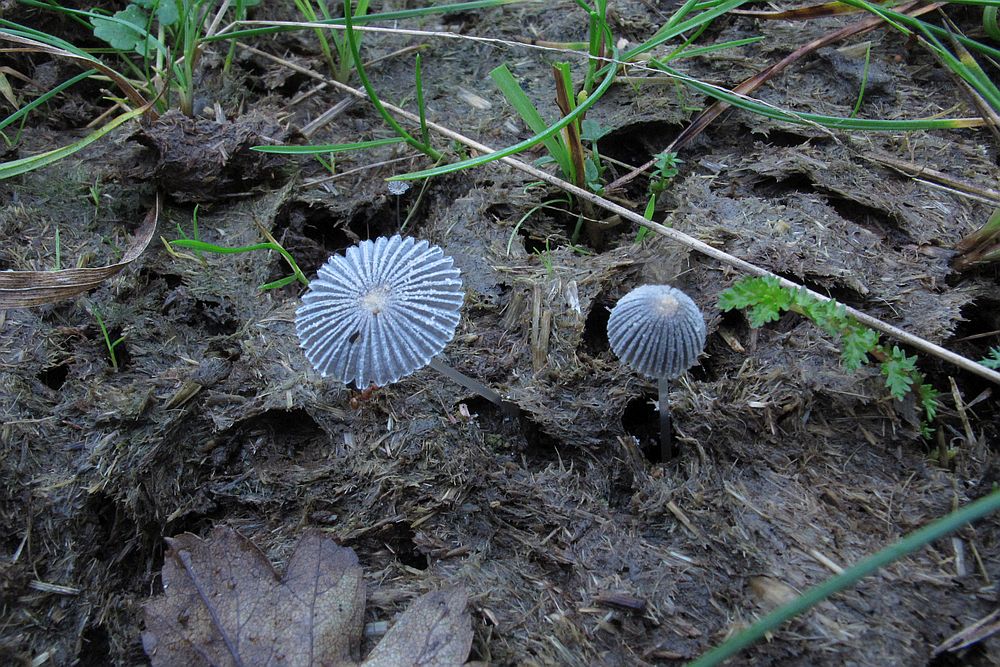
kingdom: Fungi
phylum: Basidiomycota
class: Agaricomycetes
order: Agaricales
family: Psathyrellaceae
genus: Narcissea
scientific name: Narcissea ephemeroides
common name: ring-blækhat
